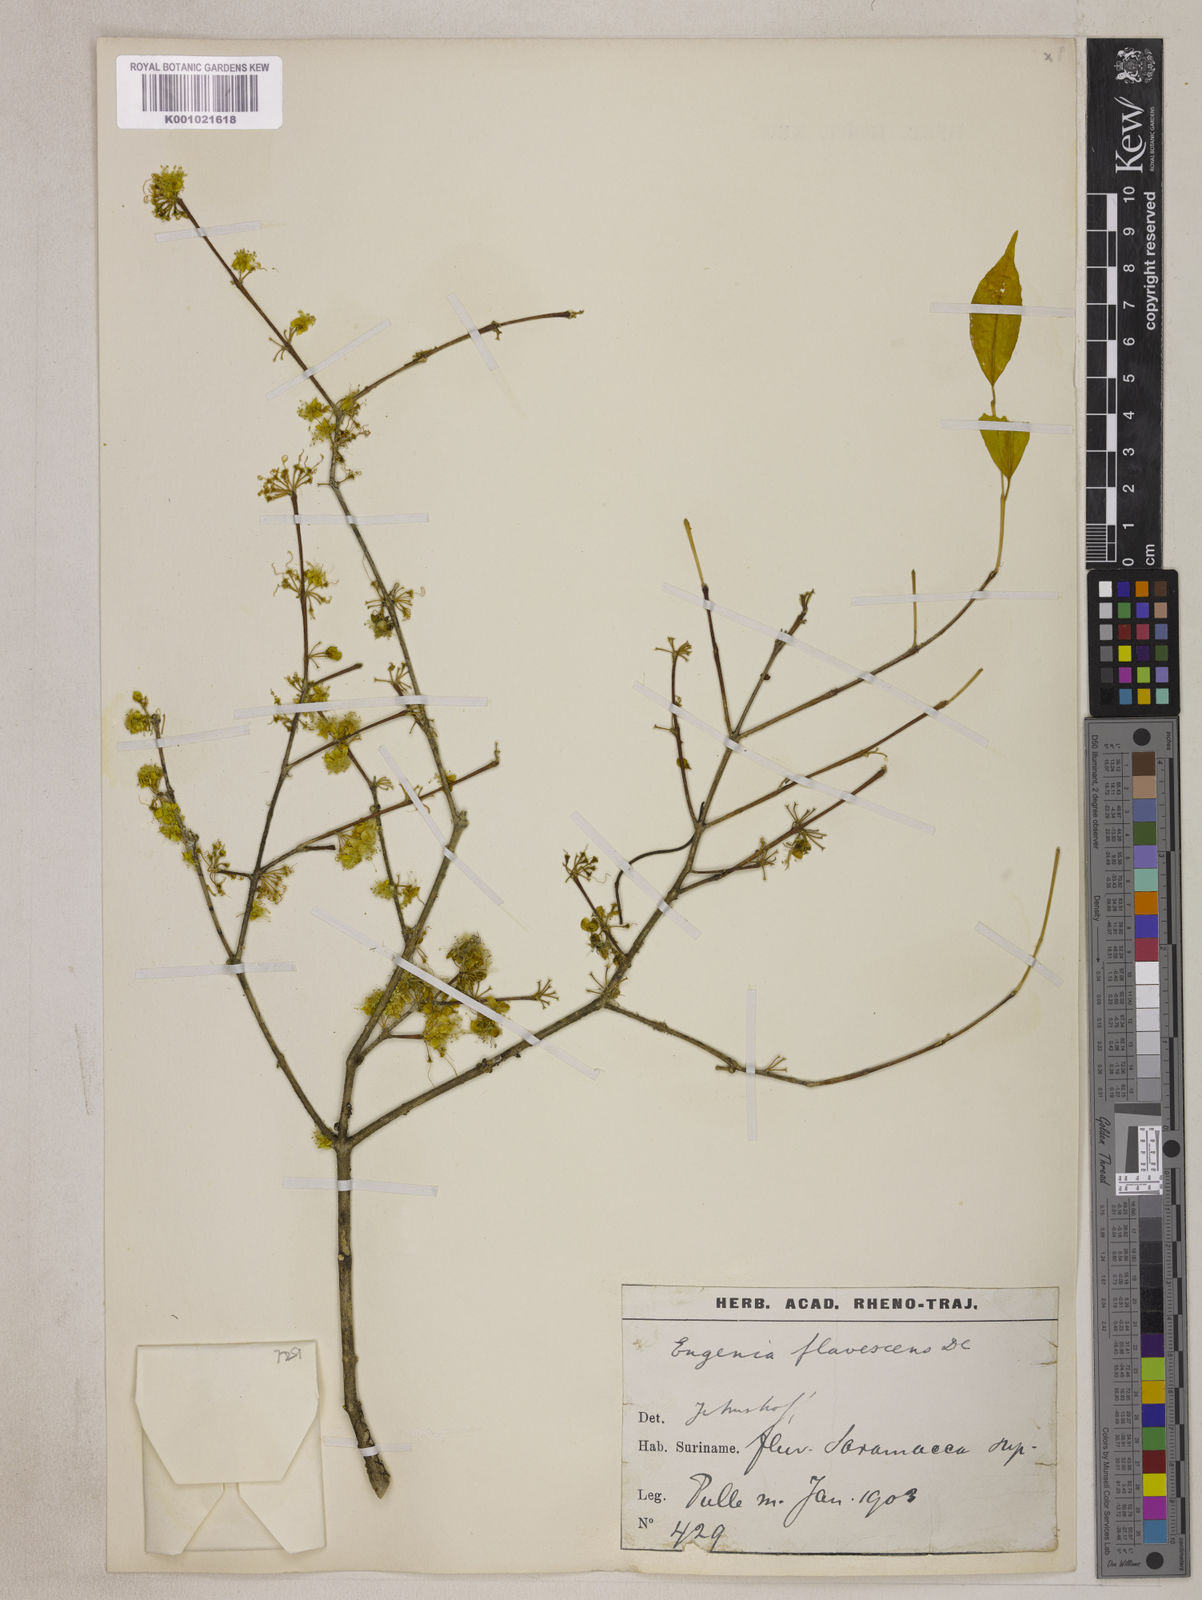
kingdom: Plantae
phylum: Tracheophyta
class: Magnoliopsida
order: Myrtales
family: Myrtaceae
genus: Eugenia
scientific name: Eugenia flavescens
